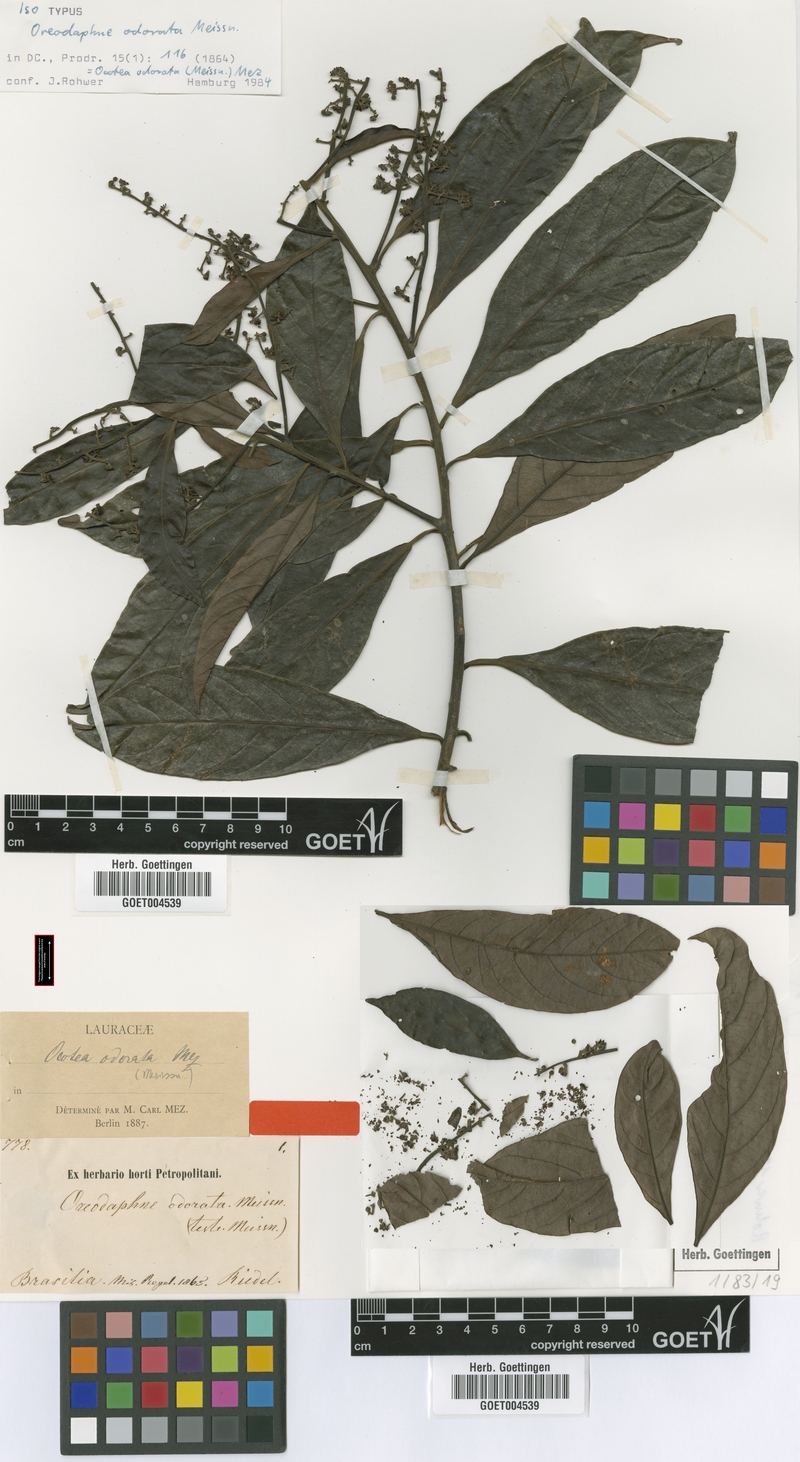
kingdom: Plantae
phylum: Tracheophyta
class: Magnoliopsida
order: Laurales
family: Lauraceae
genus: Ocotea
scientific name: Ocotea odorata
